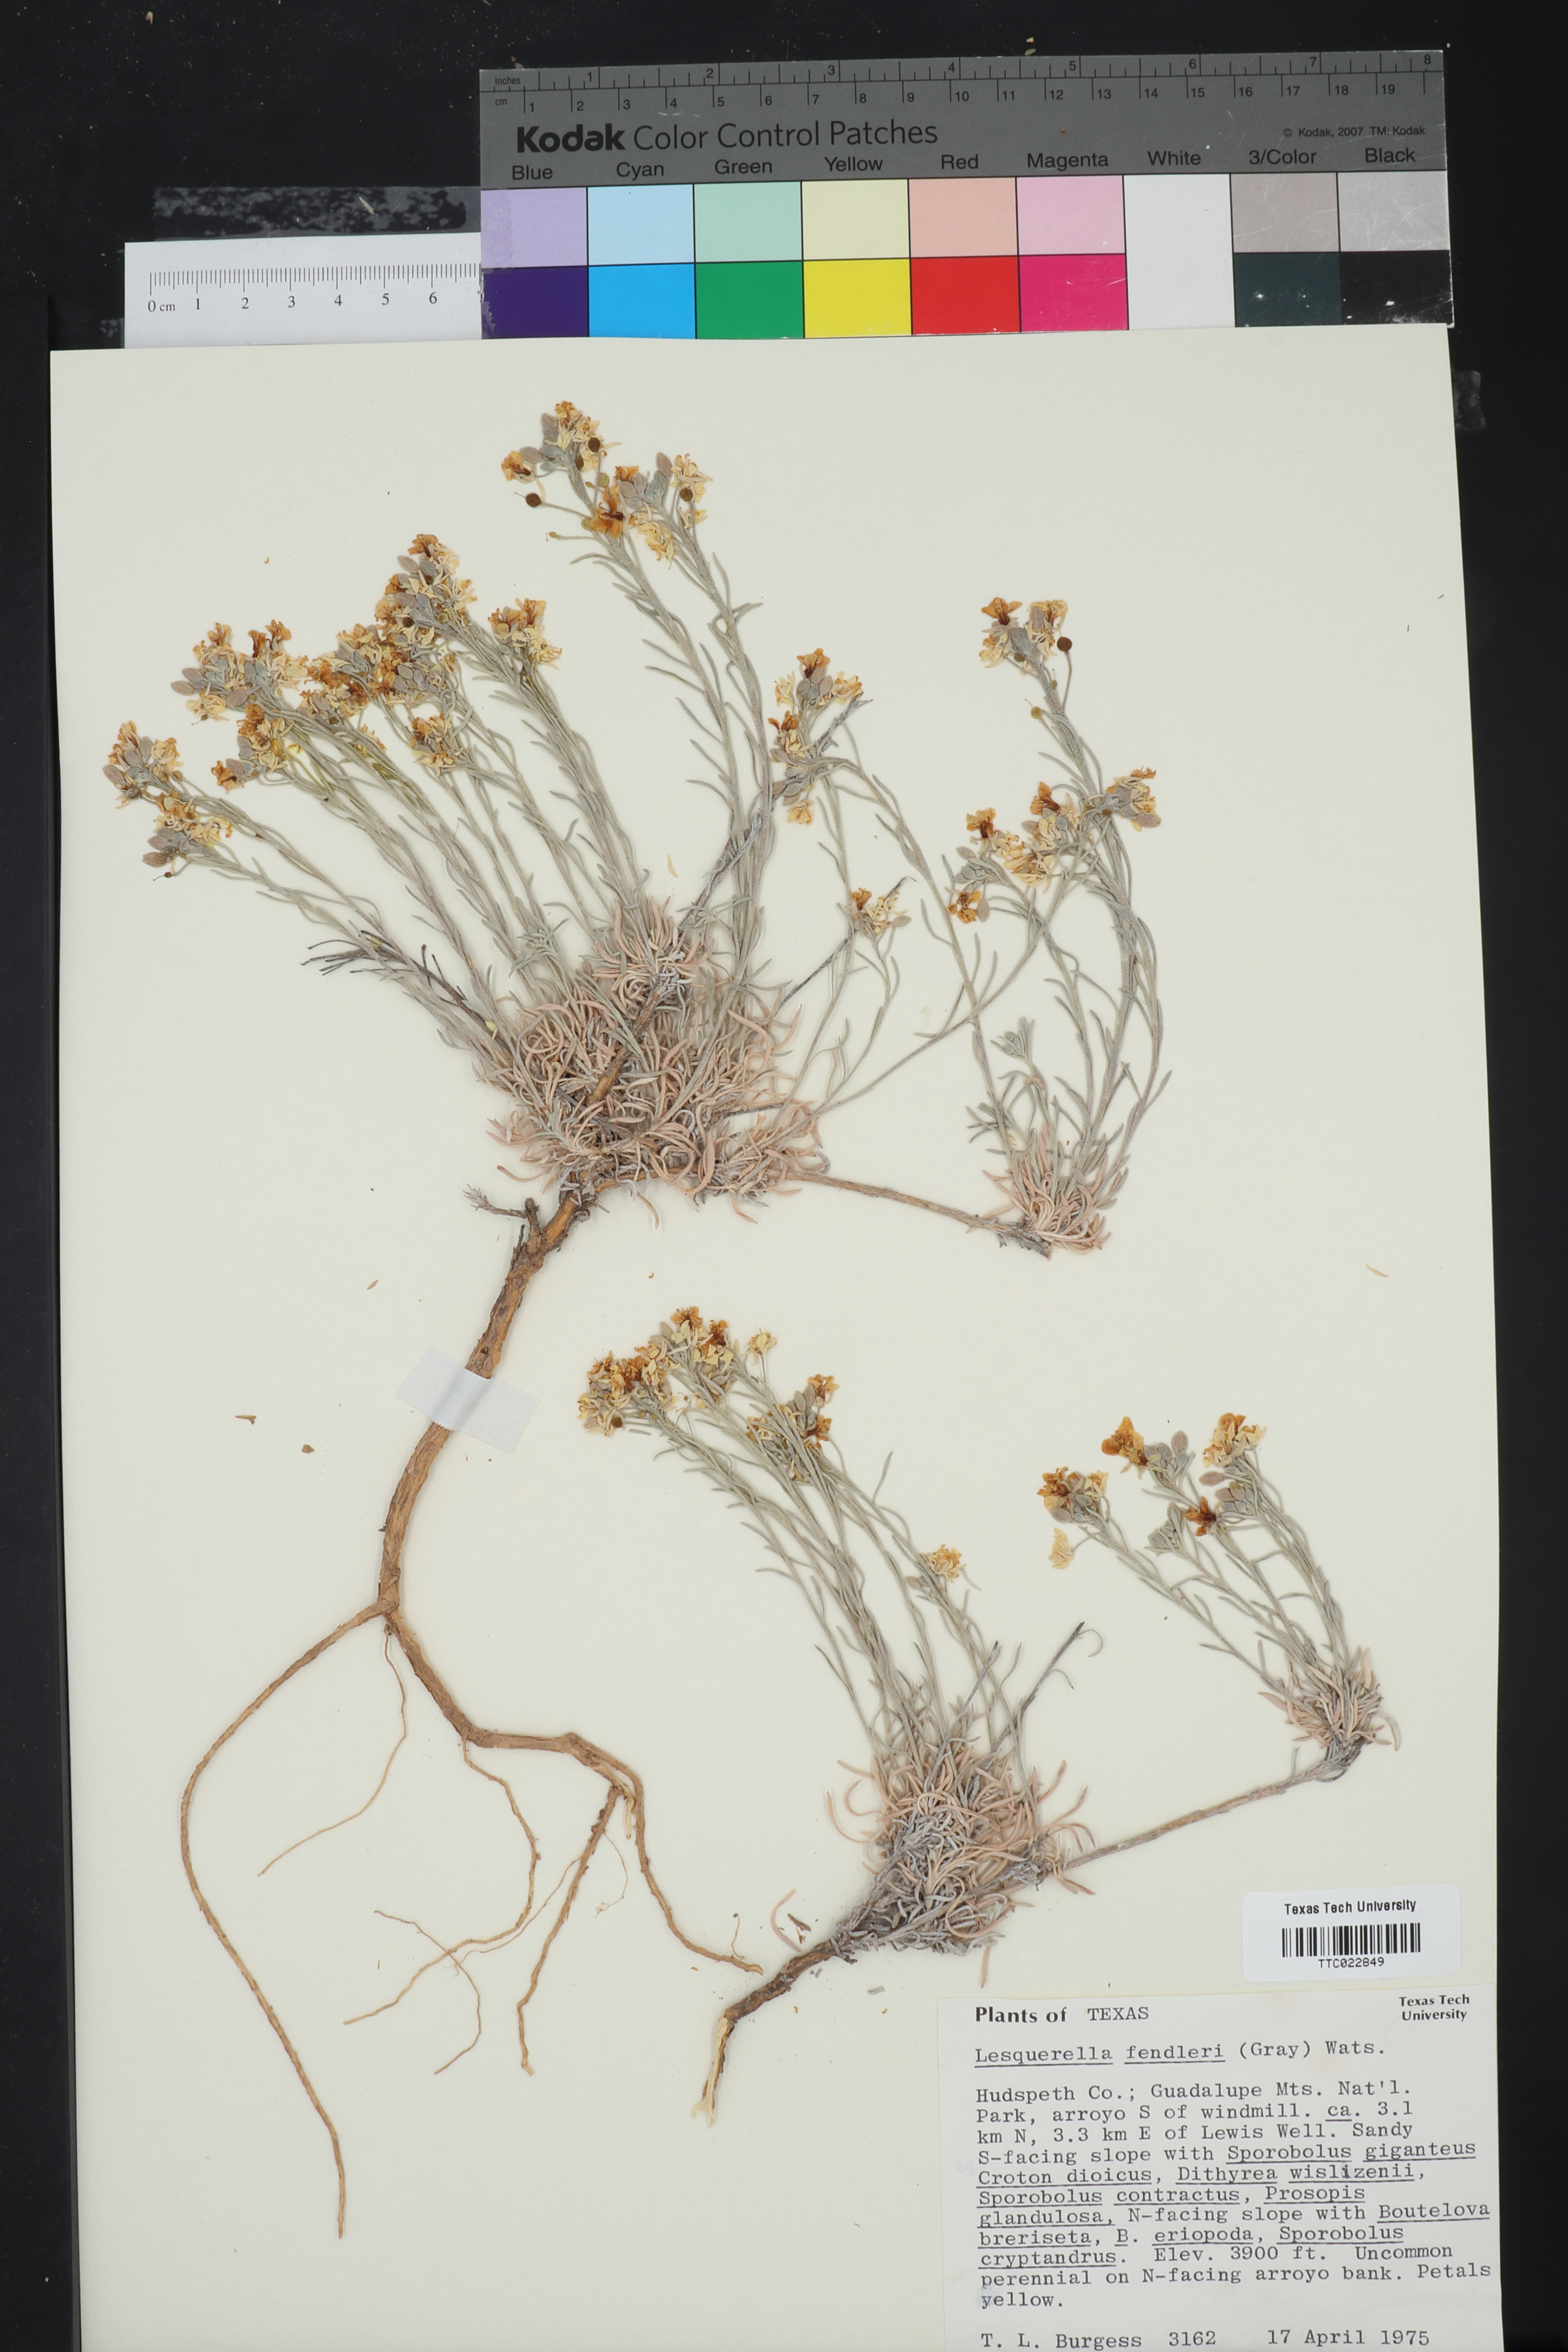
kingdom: Plantae
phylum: Tracheophyta
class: Magnoliopsida
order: Brassicales
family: Brassicaceae
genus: Physaria
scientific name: Physaria fendleri
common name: Fendler's bladderpod
